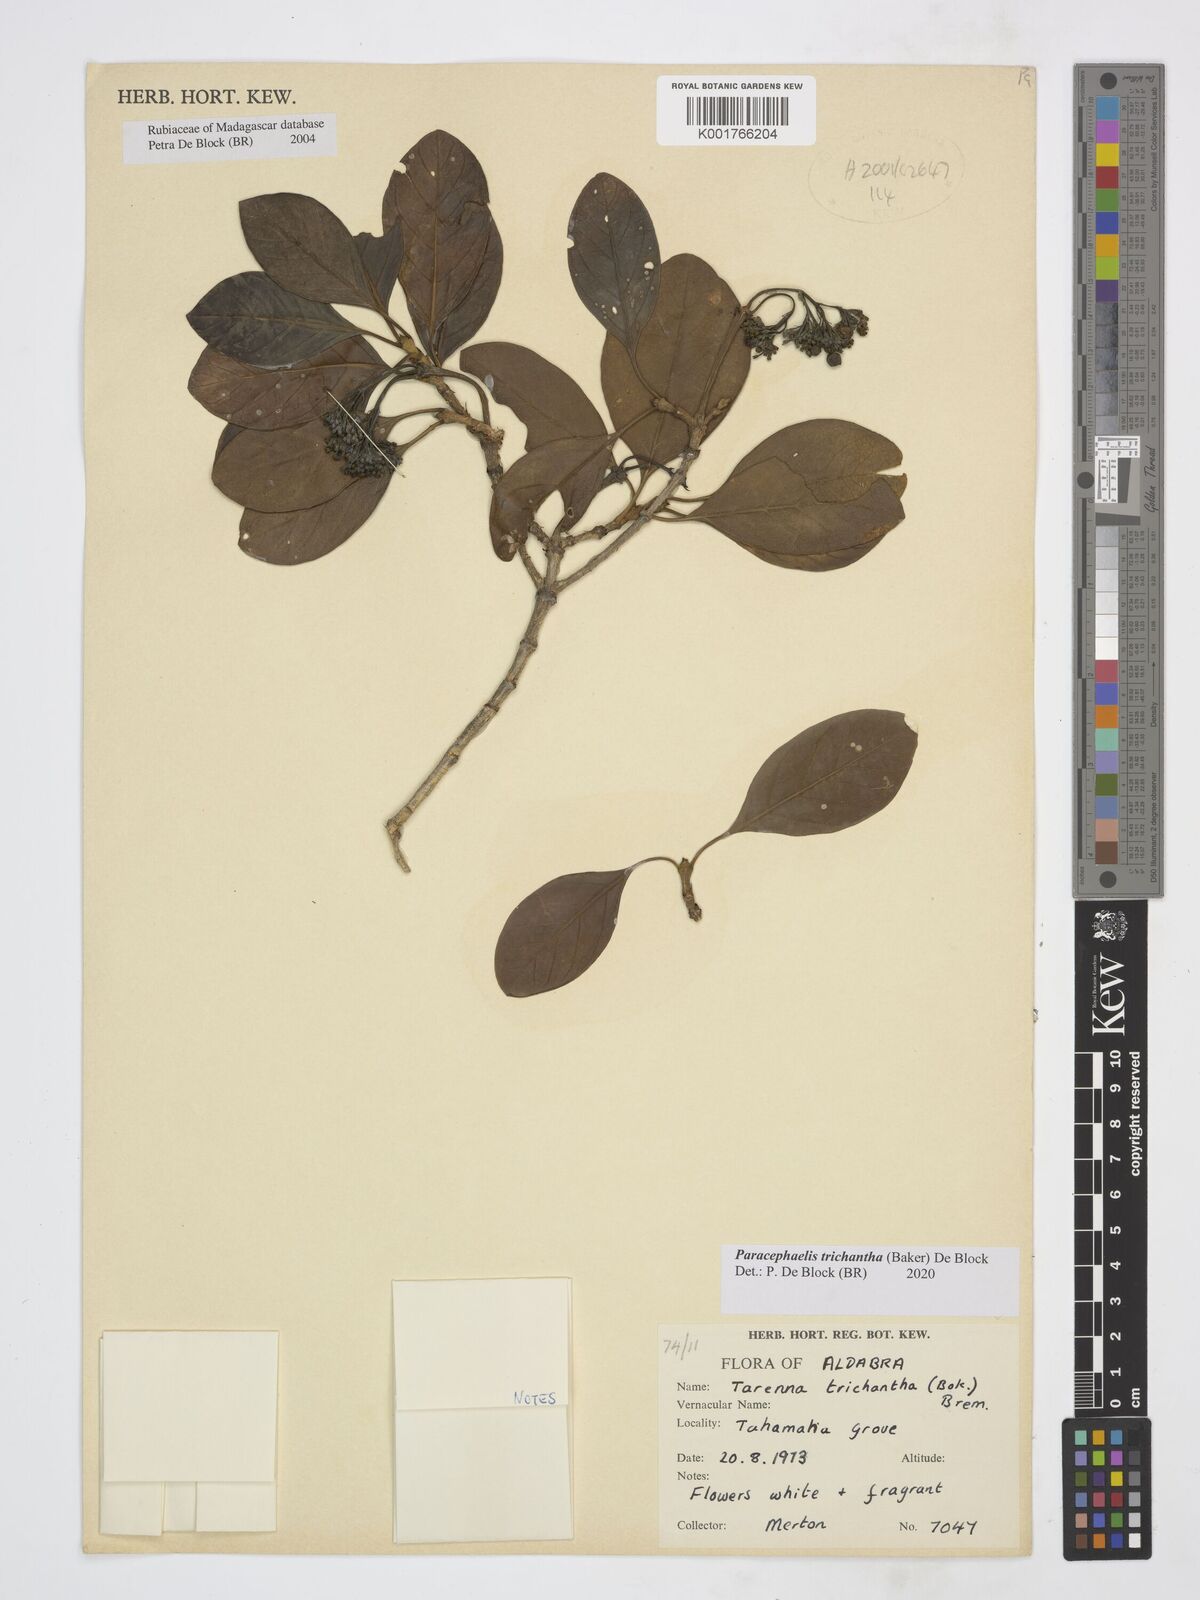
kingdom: Plantae
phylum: Tracheophyta
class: Magnoliopsida
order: Gentianales
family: Rubiaceae
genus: Paracephaelis
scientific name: Paracephaelis trichantha
